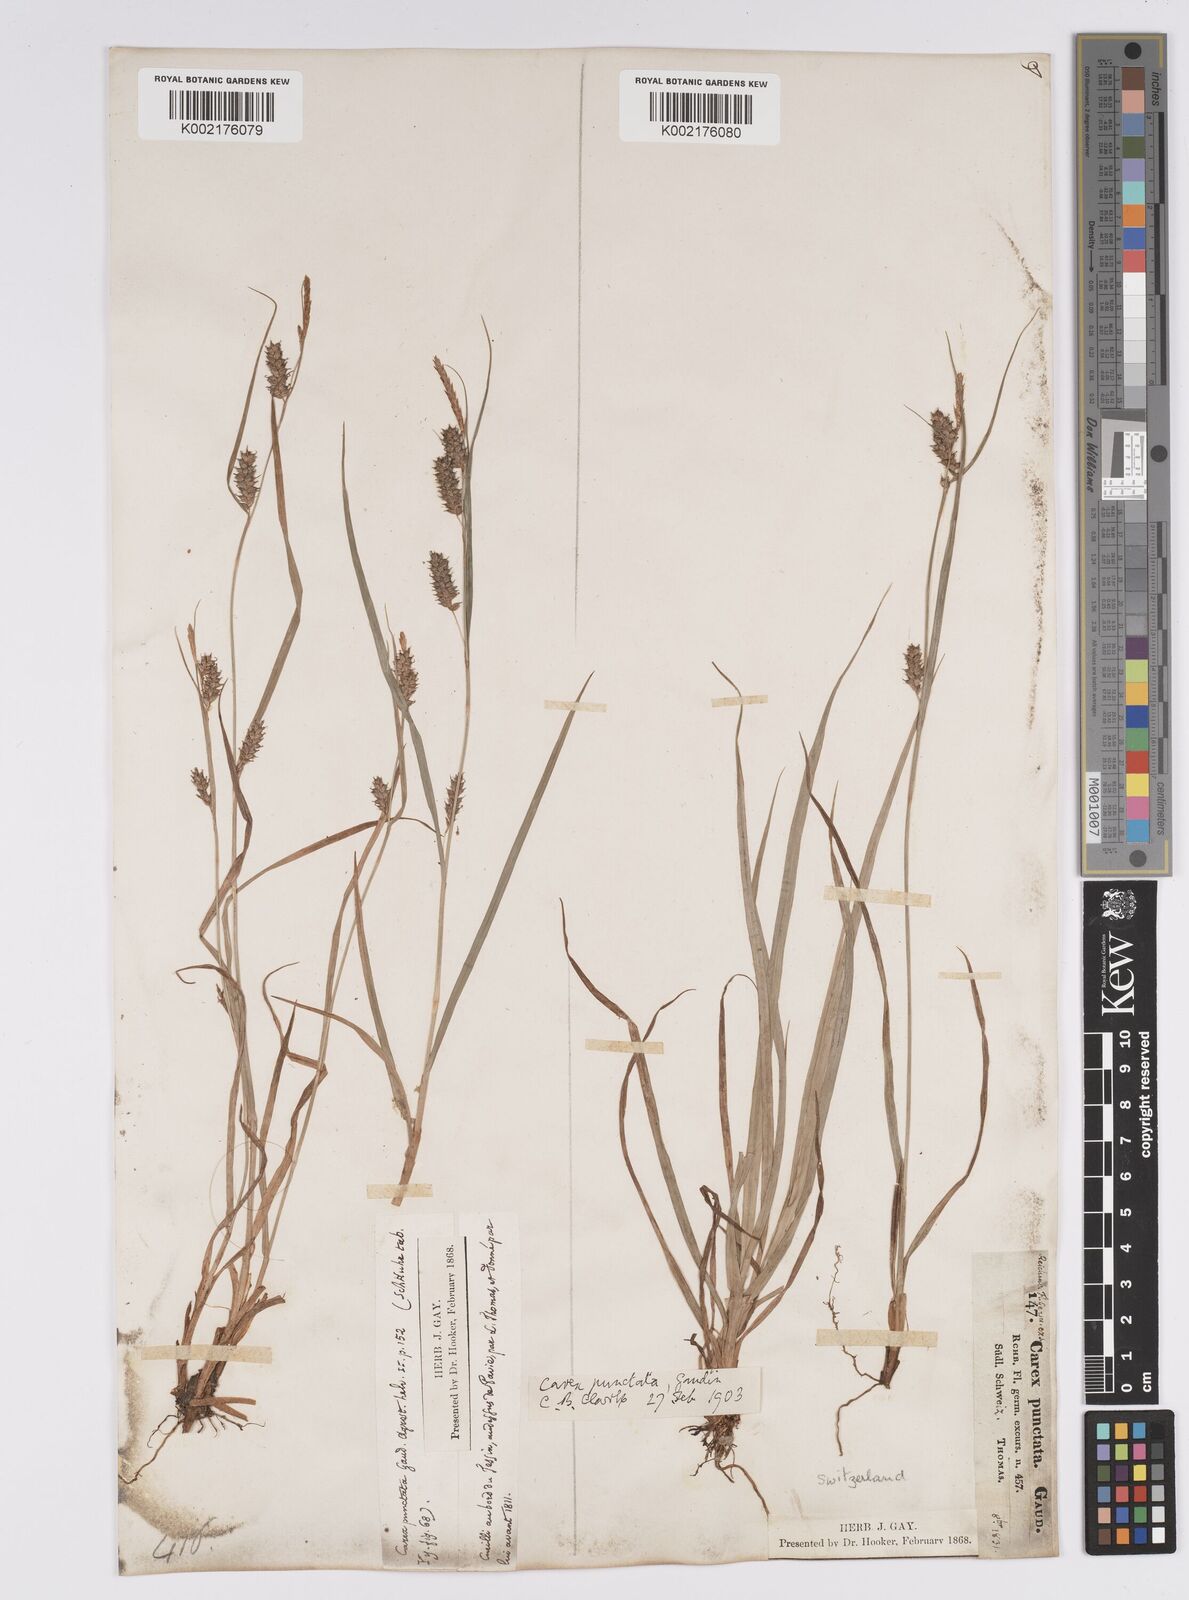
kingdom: Plantae
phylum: Tracheophyta
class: Liliopsida
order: Poales
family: Cyperaceae
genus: Carex
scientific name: Carex punctata
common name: Dotted sedge
